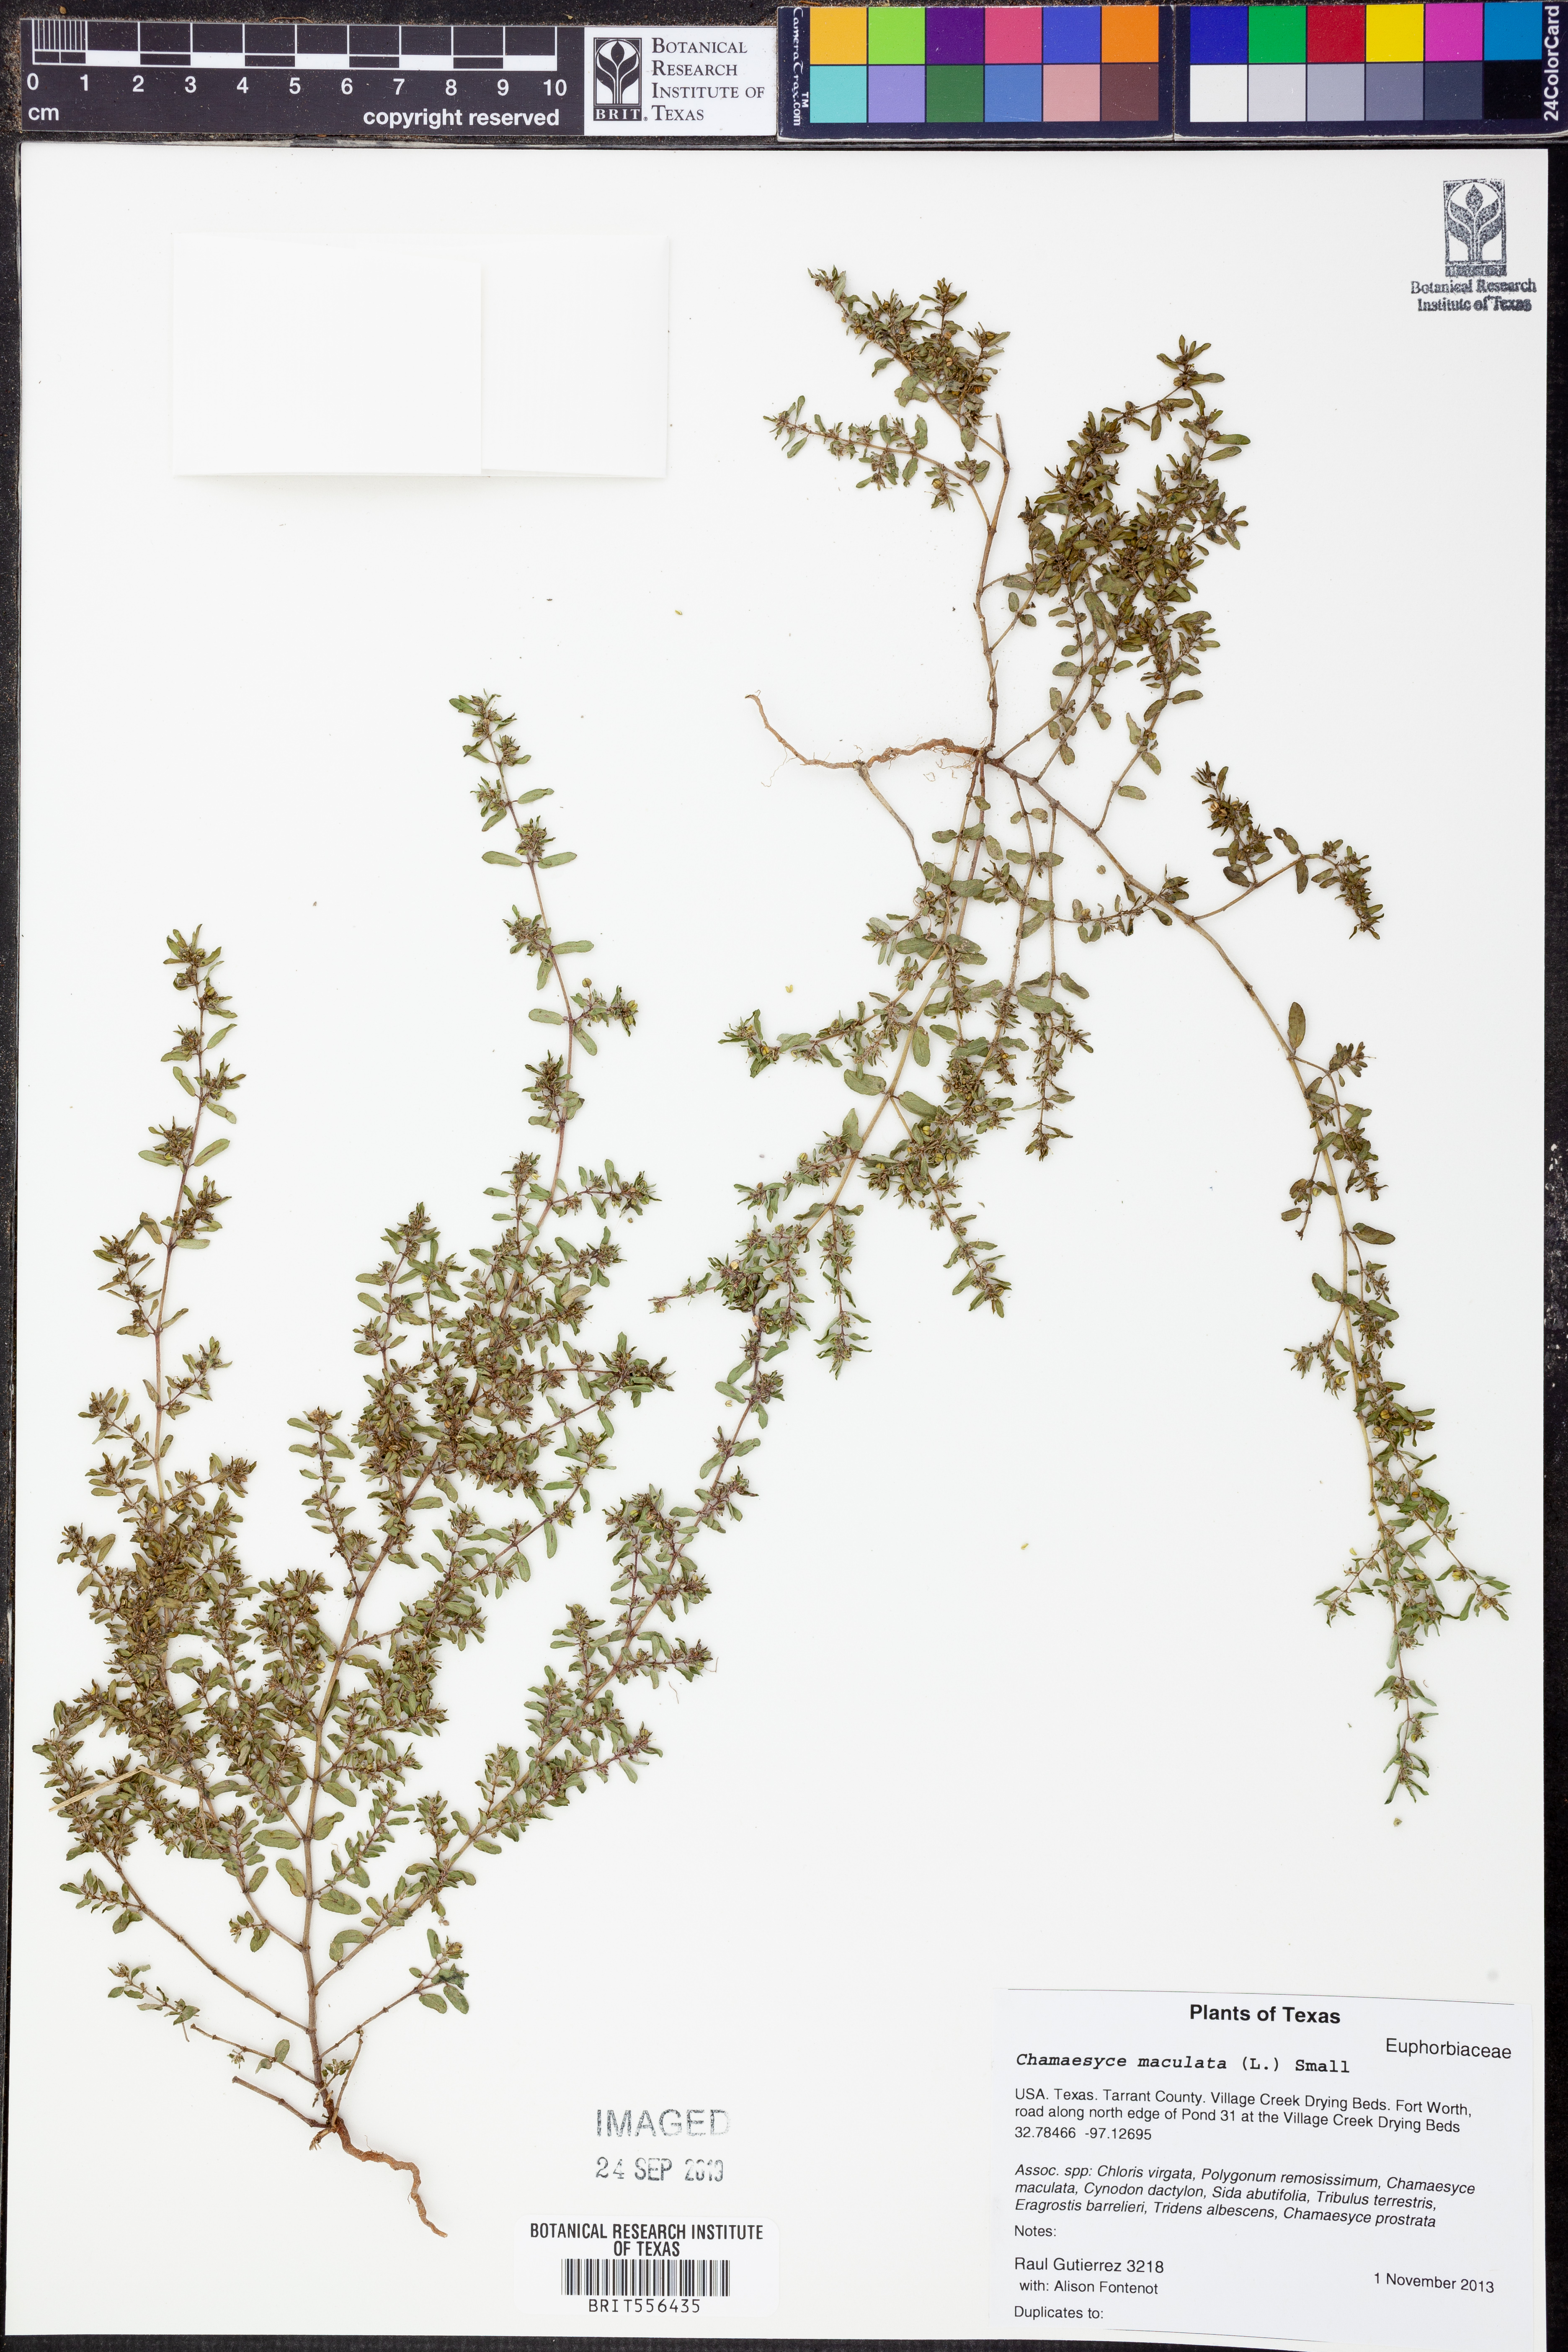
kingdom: Plantae
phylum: Tracheophyta
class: Magnoliopsida
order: Malpighiales
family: Euphorbiaceae
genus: Euphorbia
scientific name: Euphorbia maculata
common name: Spotted spurge
